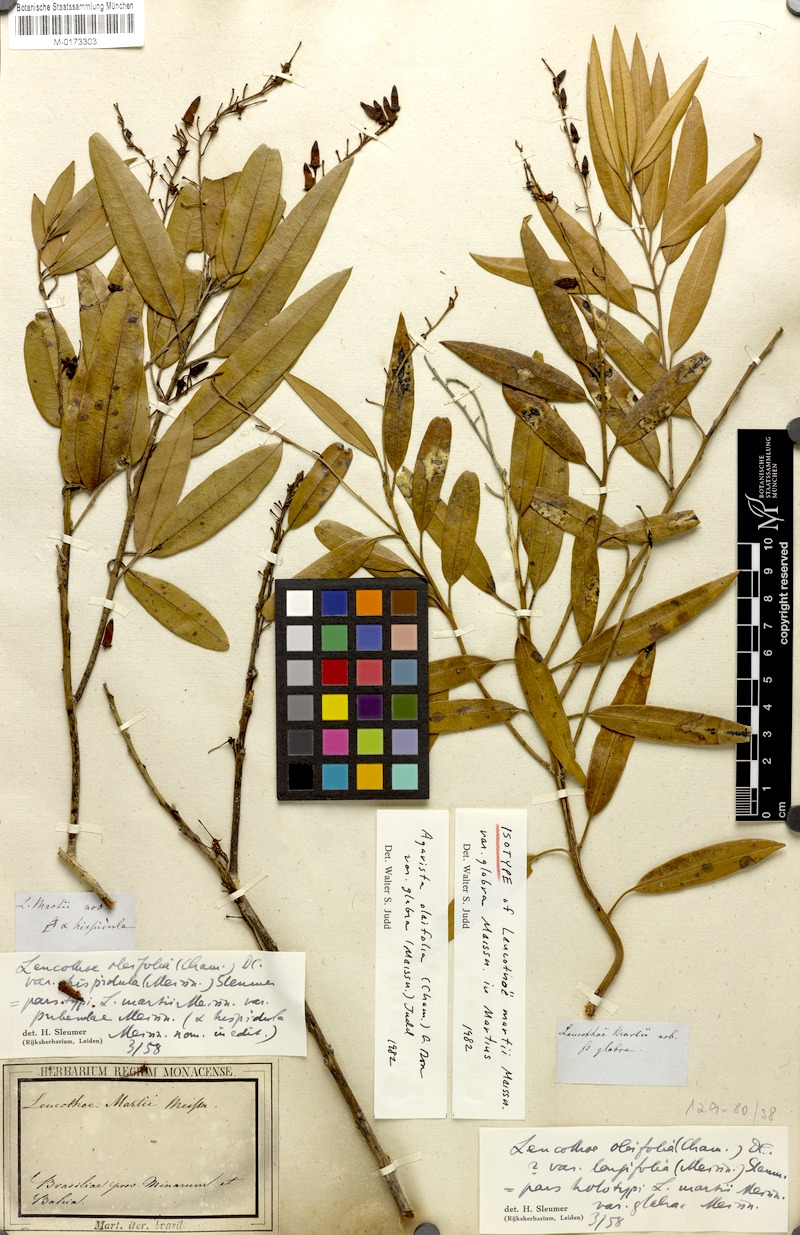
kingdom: Plantae
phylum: Tracheophyta
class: Magnoliopsida
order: Ericales
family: Ericaceae
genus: Agarista
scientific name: Agarista oleifolia
